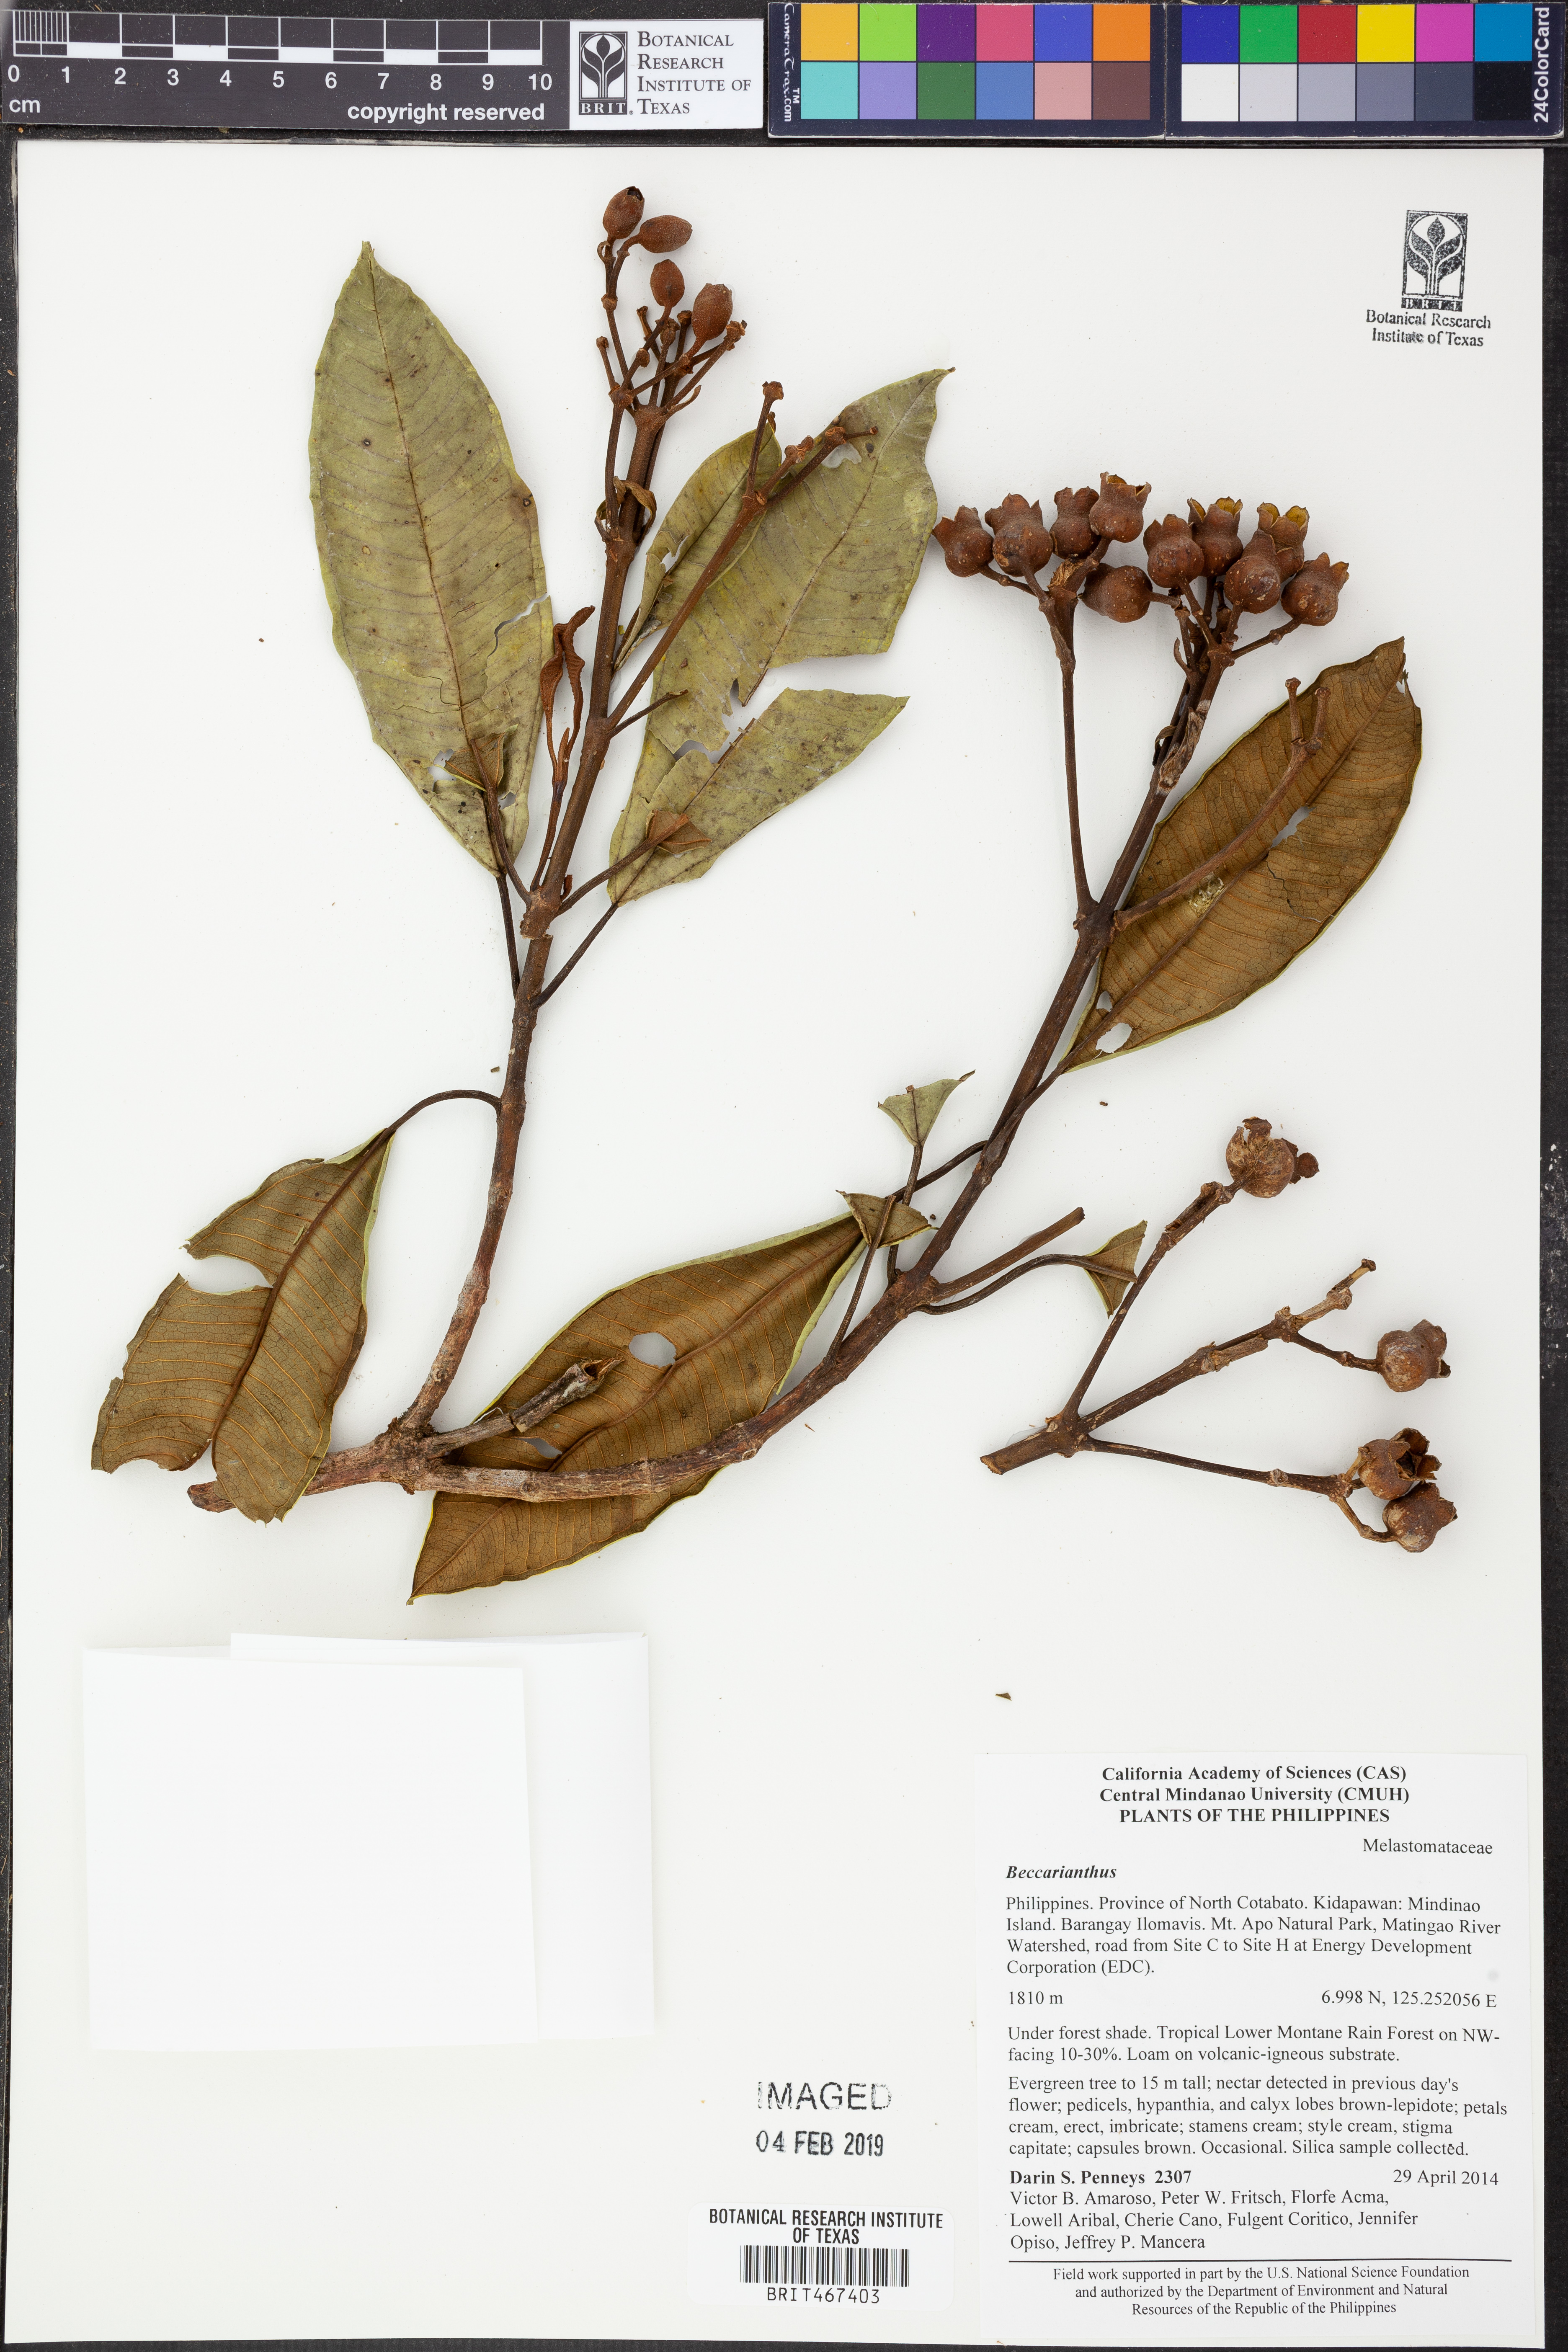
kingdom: Plantae
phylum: Tracheophyta
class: Magnoliopsida
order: Myrtales
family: Melastomataceae
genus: Beccarianthus
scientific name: Beccarianthus
